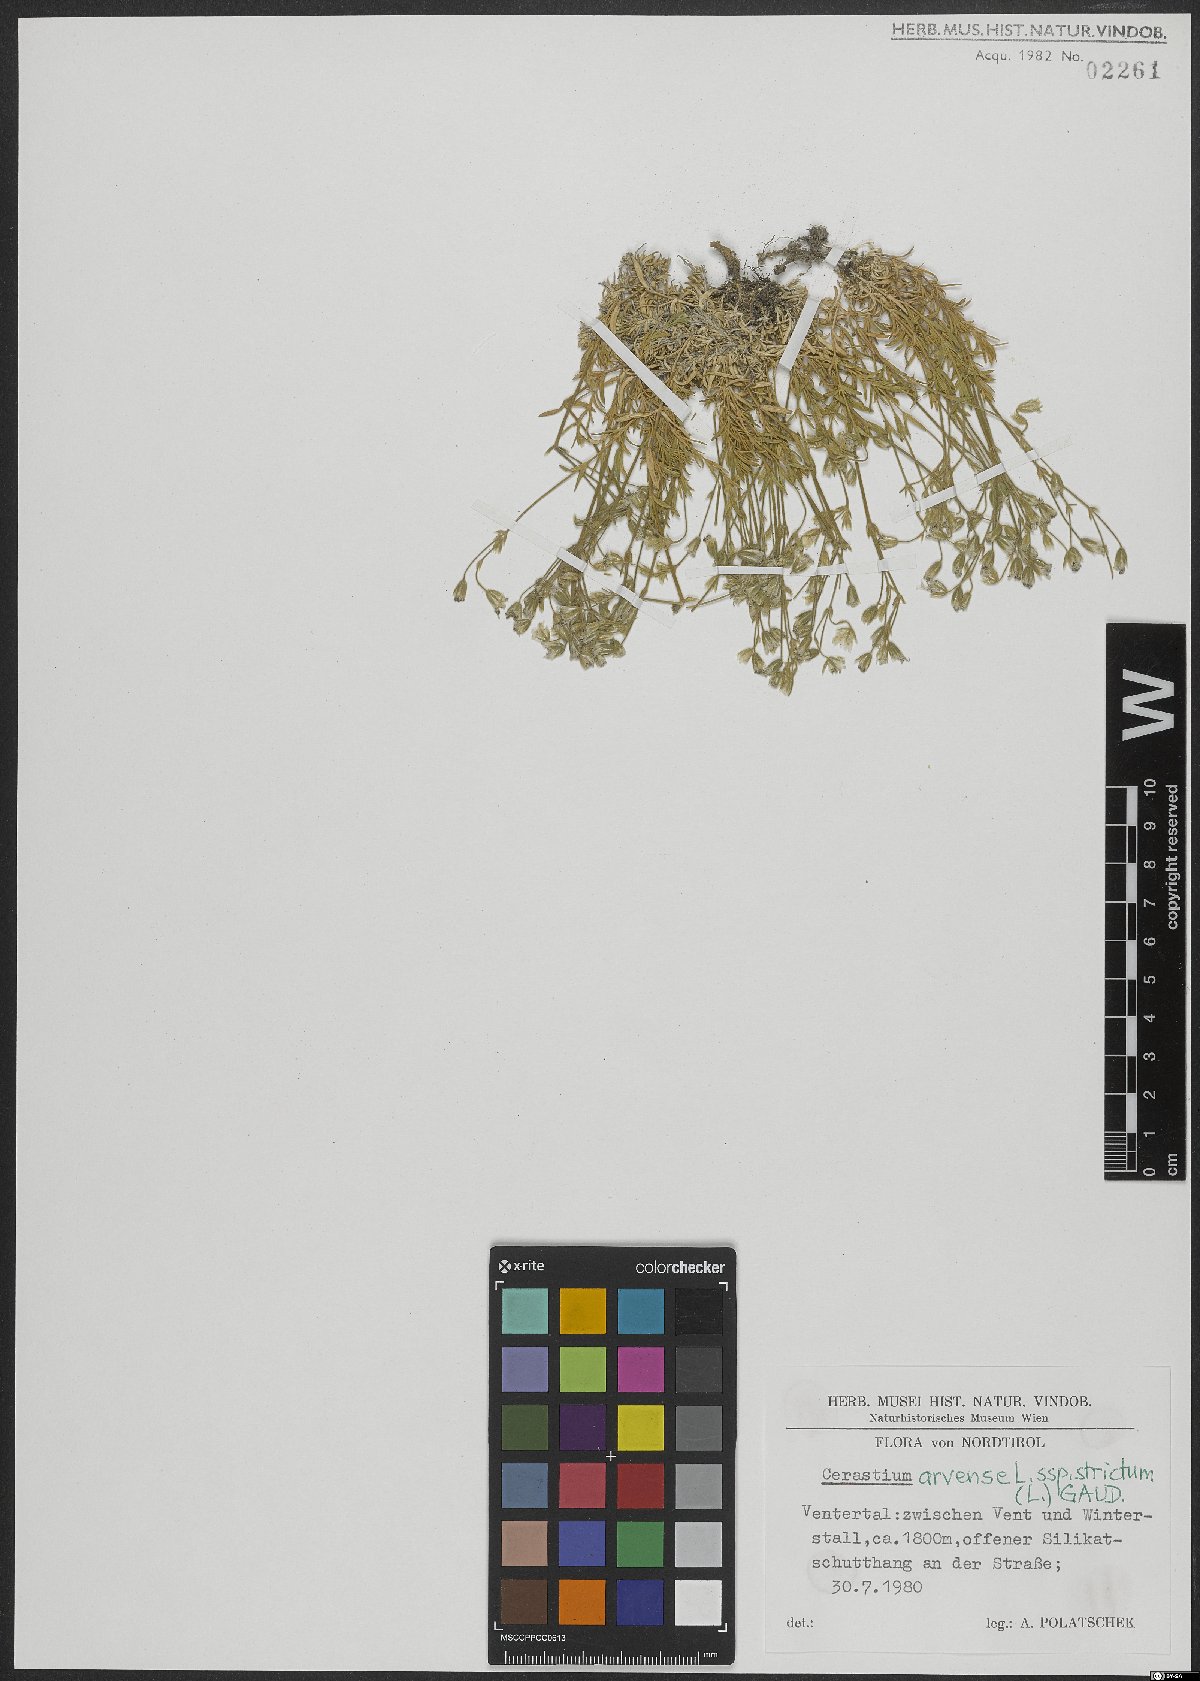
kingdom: Plantae
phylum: Tracheophyta
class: Magnoliopsida
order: Caryophyllales
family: Caryophyllaceae
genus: Cerastium
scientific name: Cerastium elongatum
